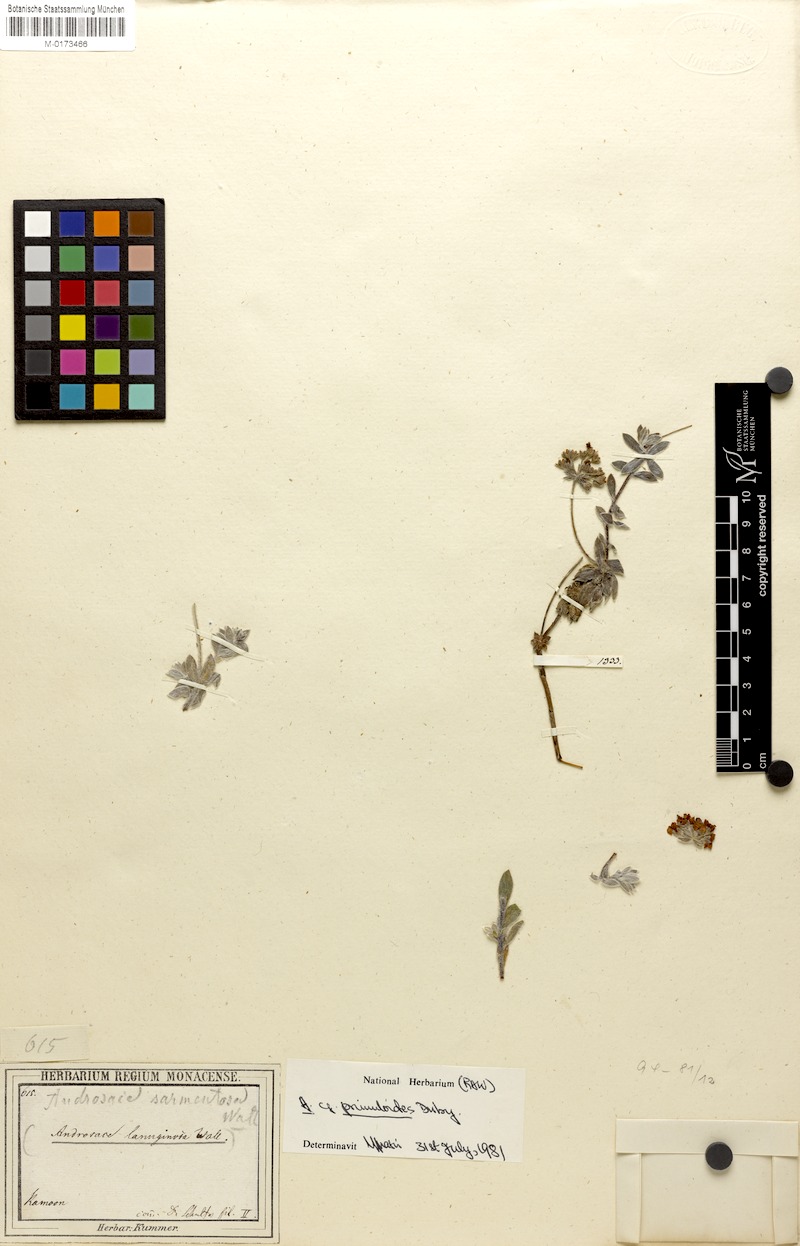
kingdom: Plantae
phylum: Tracheophyta
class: Magnoliopsida
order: Ericales
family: Primulaceae
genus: Androsace
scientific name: Androsace lanuginosa
